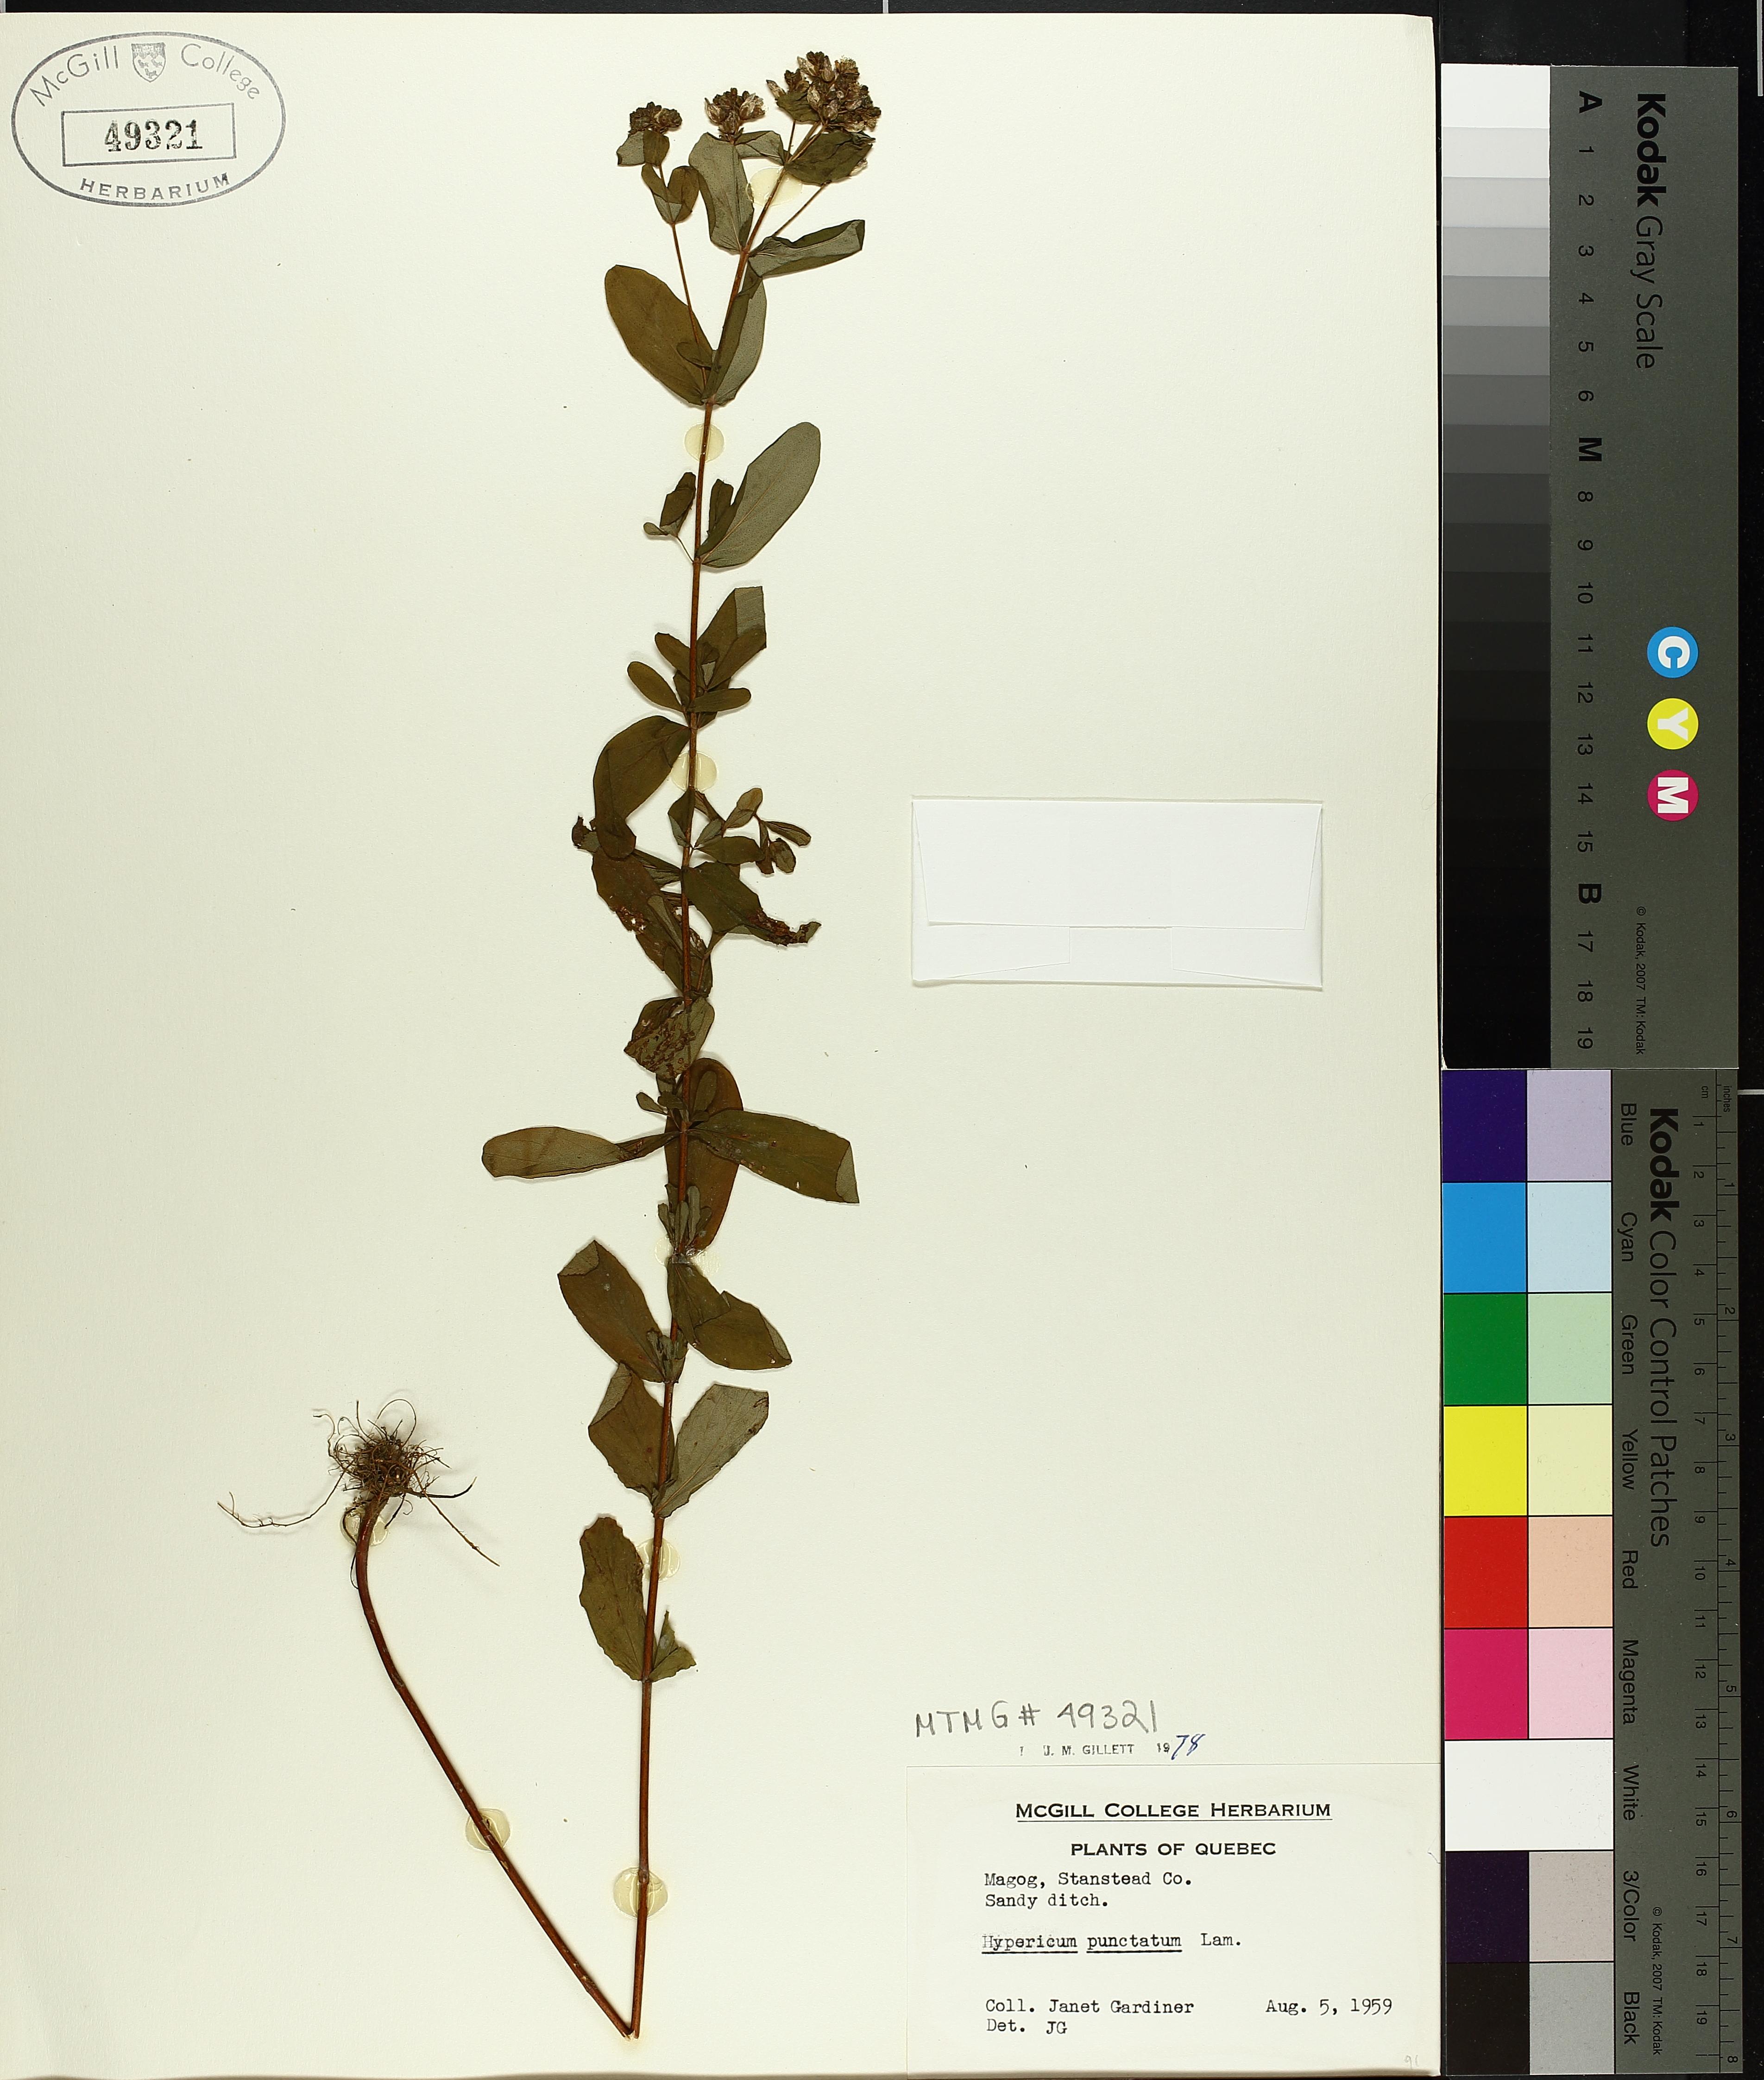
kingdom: Plantae
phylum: Tracheophyta
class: Magnoliopsida
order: Malpighiales
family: Hypericaceae
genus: Hypericum
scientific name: Hypericum punctatum
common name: Spotted st. john's-wort
